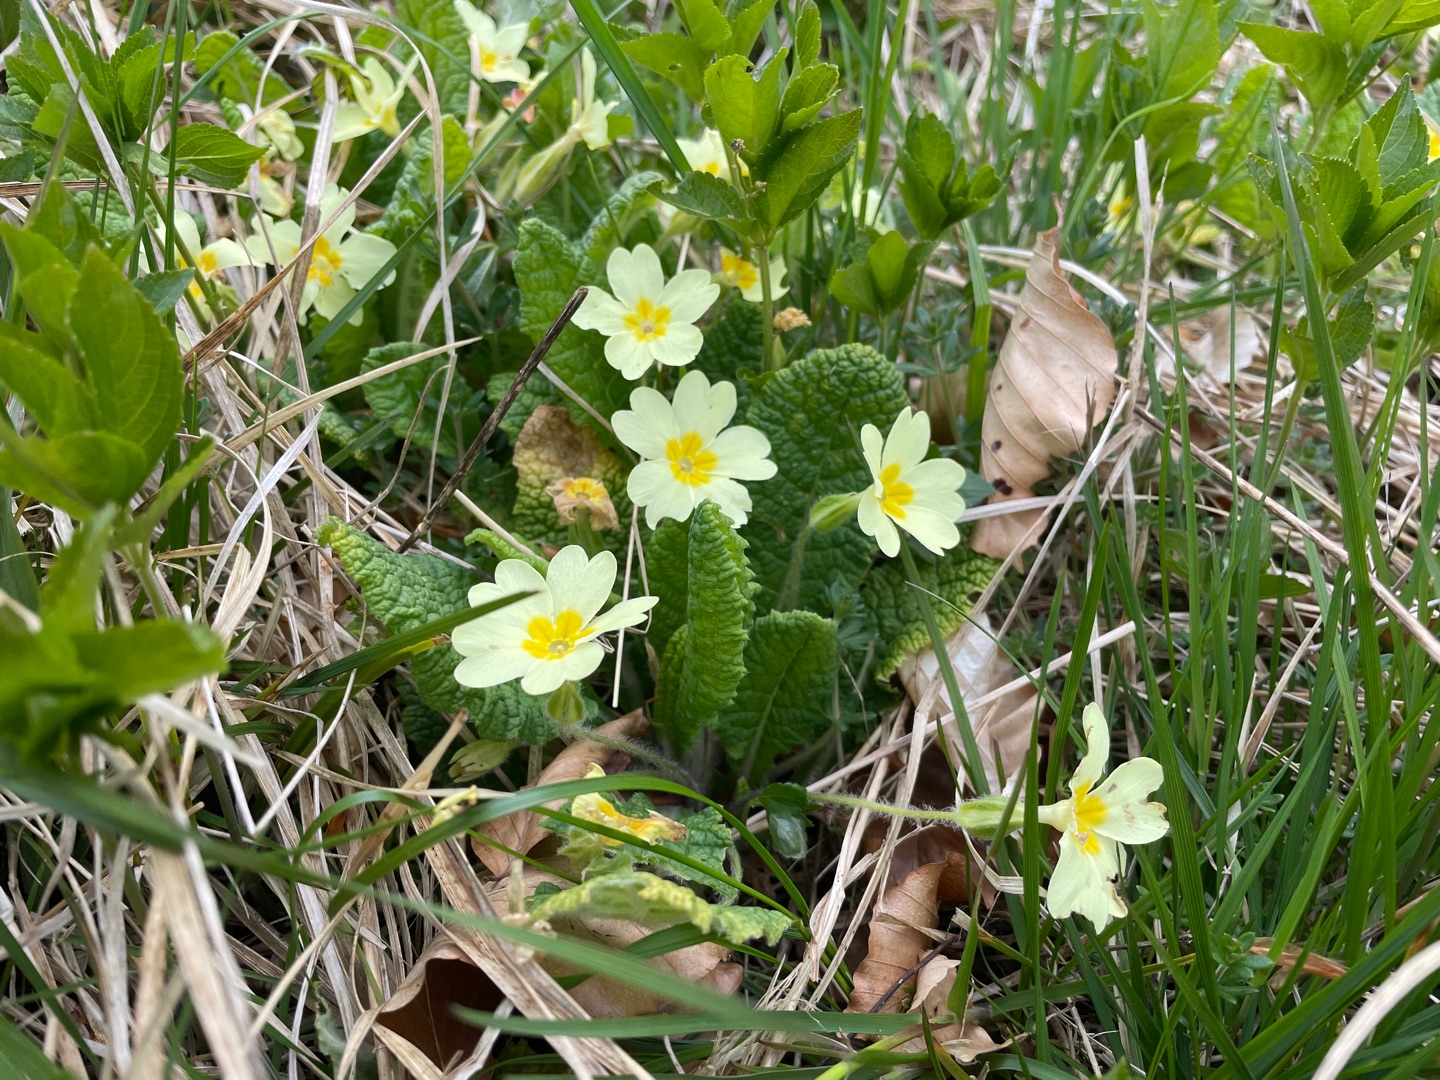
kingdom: Plantae
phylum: Tracheophyta
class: Magnoliopsida
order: Ericales
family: Primulaceae
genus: Primula
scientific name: Primula vulgaris
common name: Storblomstret kodriver
